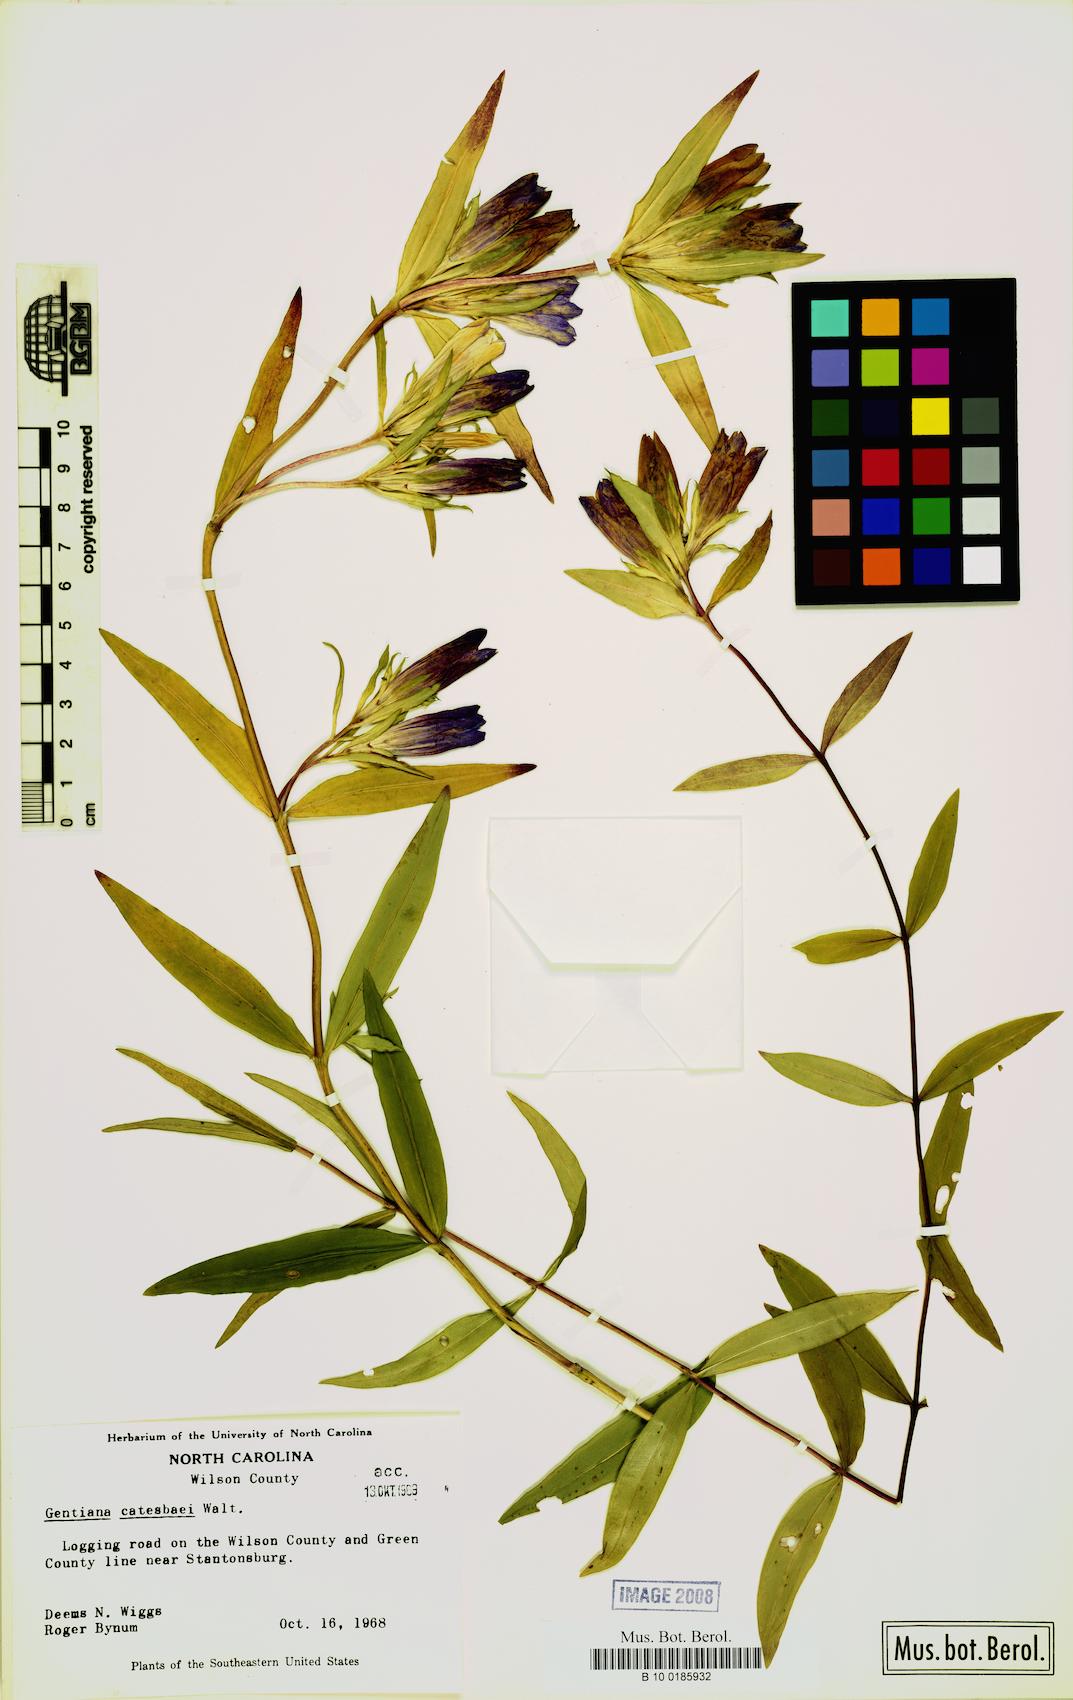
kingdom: Plantae
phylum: Tracheophyta
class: Magnoliopsida
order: Gentianales
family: Gentianaceae
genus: Gentiana
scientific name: Gentiana catesbaei
